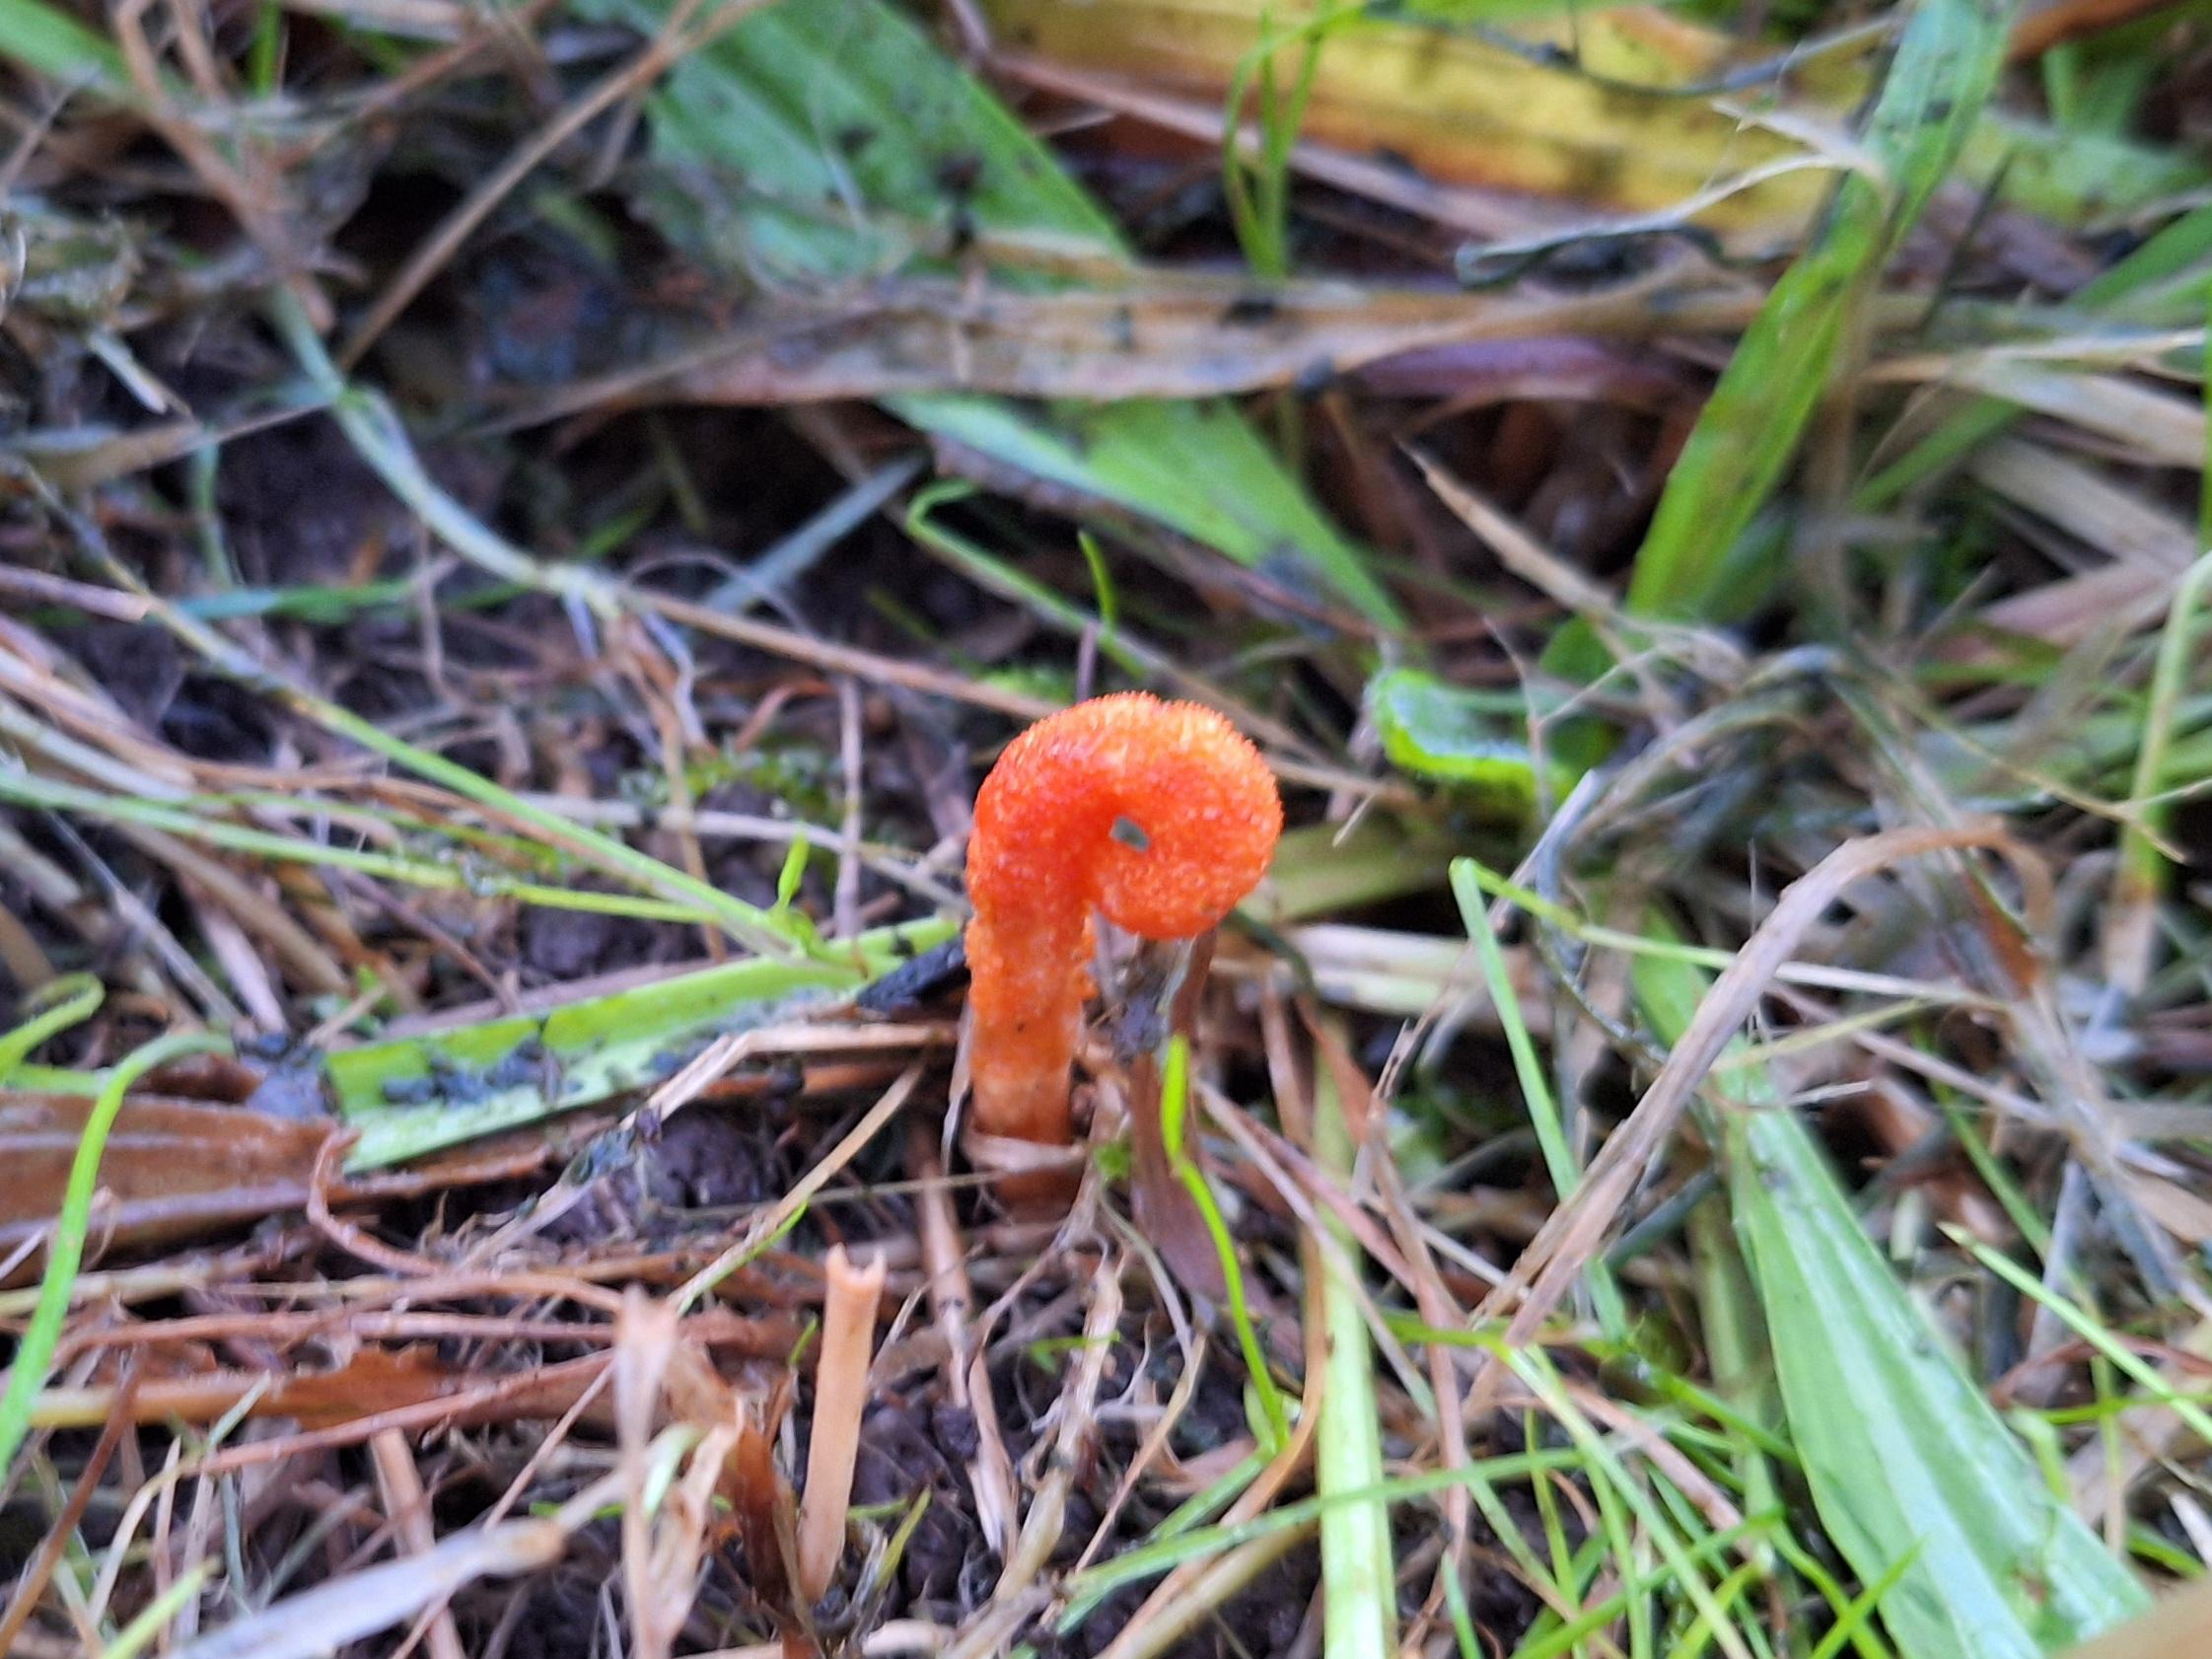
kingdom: Fungi
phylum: Ascomycota
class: Sordariomycetes
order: Hypocreales
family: Cordycipitaceae
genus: Cordyceps
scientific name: Cordyceps militaris
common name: Puppe-snyltekølle
